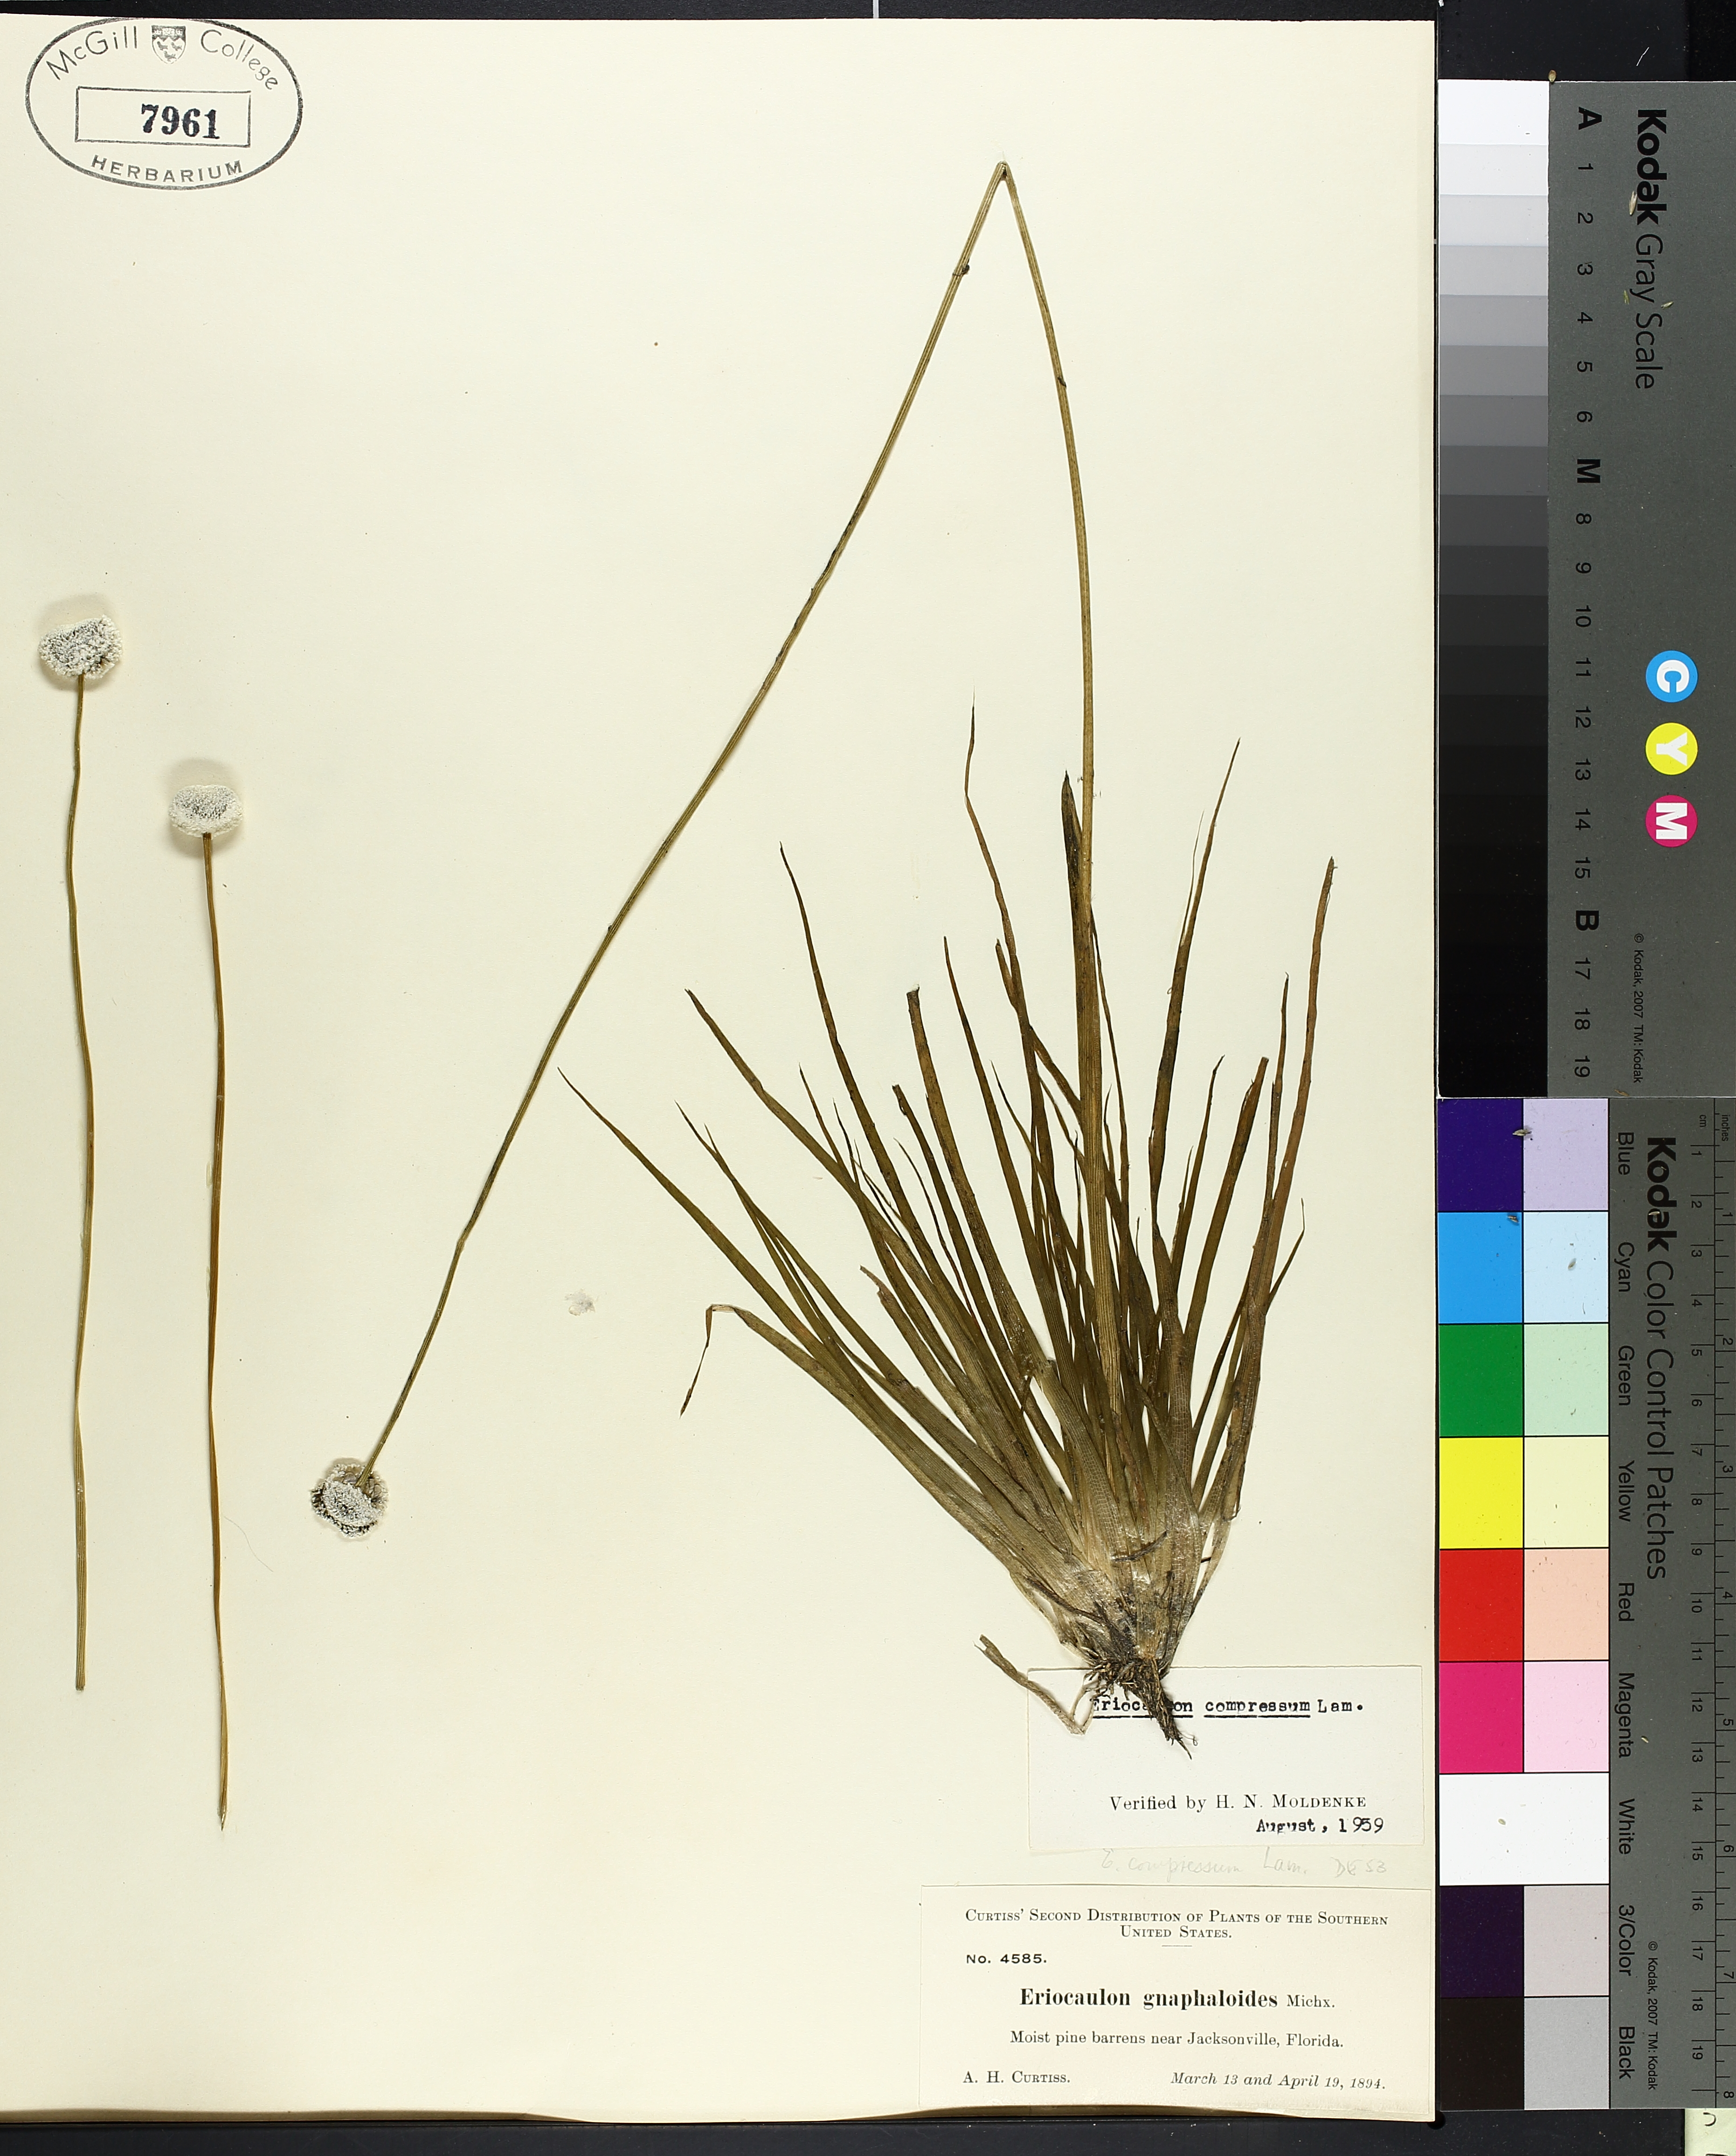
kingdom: Plantae
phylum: Tracheophyta
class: Liliopsida
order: Poales
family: Cyperaceae
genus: Carex
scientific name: Carex lurida
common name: Sallow sedge
